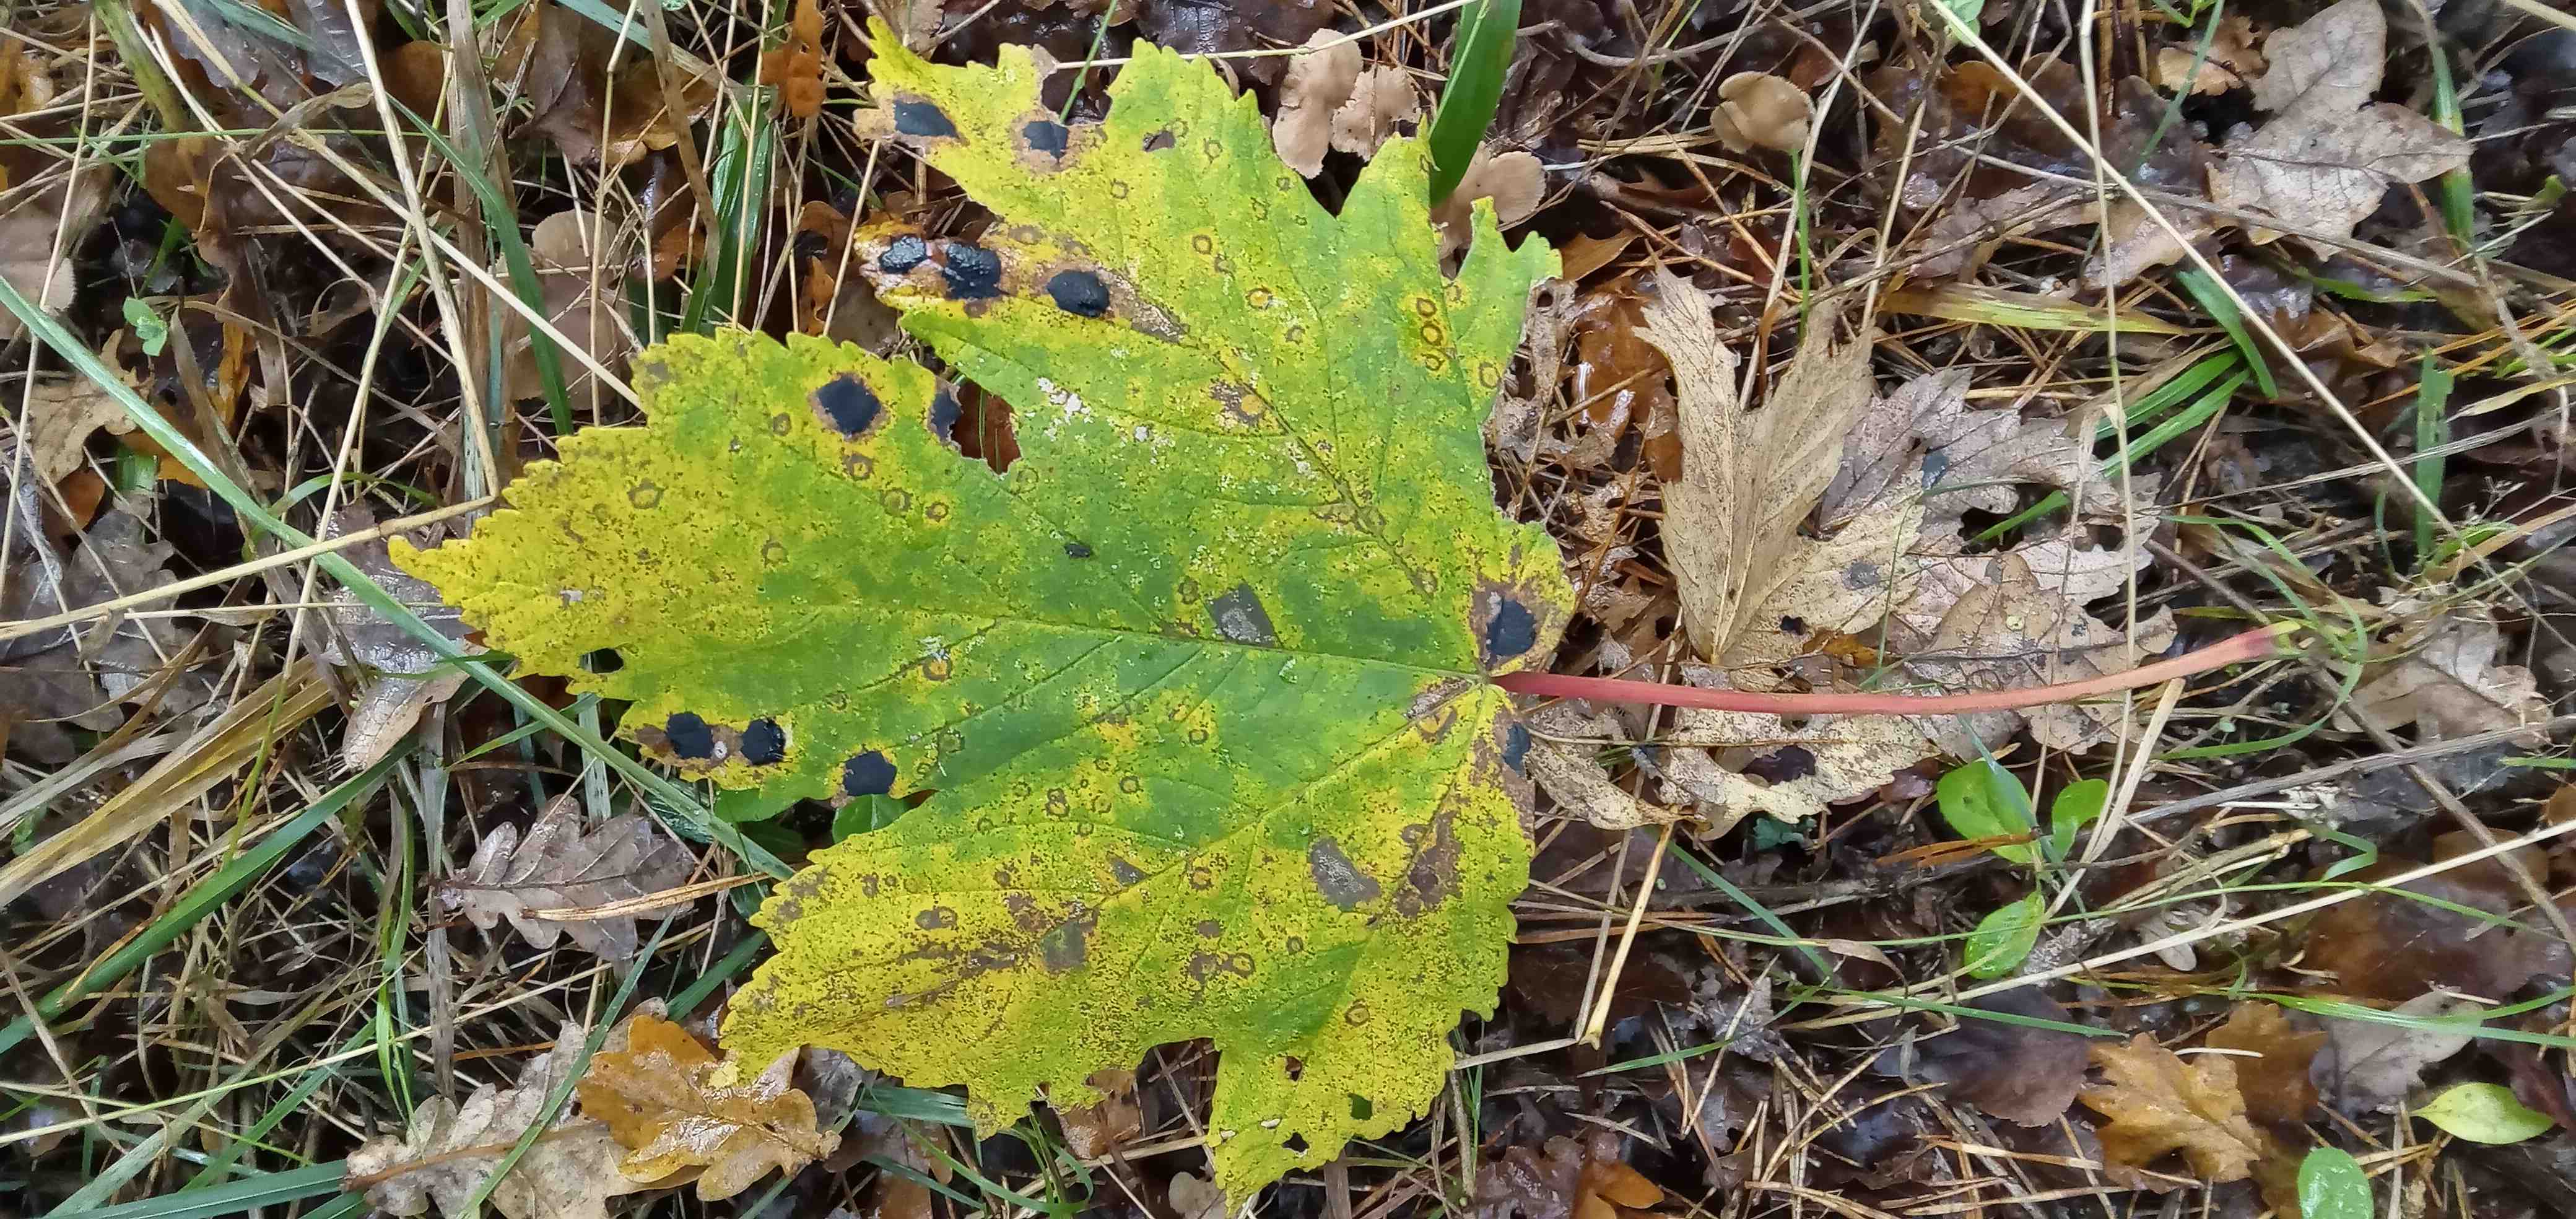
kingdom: Fungi
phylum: Ascomycota
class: Leotiomycetes
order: Rhytismatales
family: Rhytismataceae
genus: Rhytisma
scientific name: Rhytisma acerinum
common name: ahorn-rynkeplet
